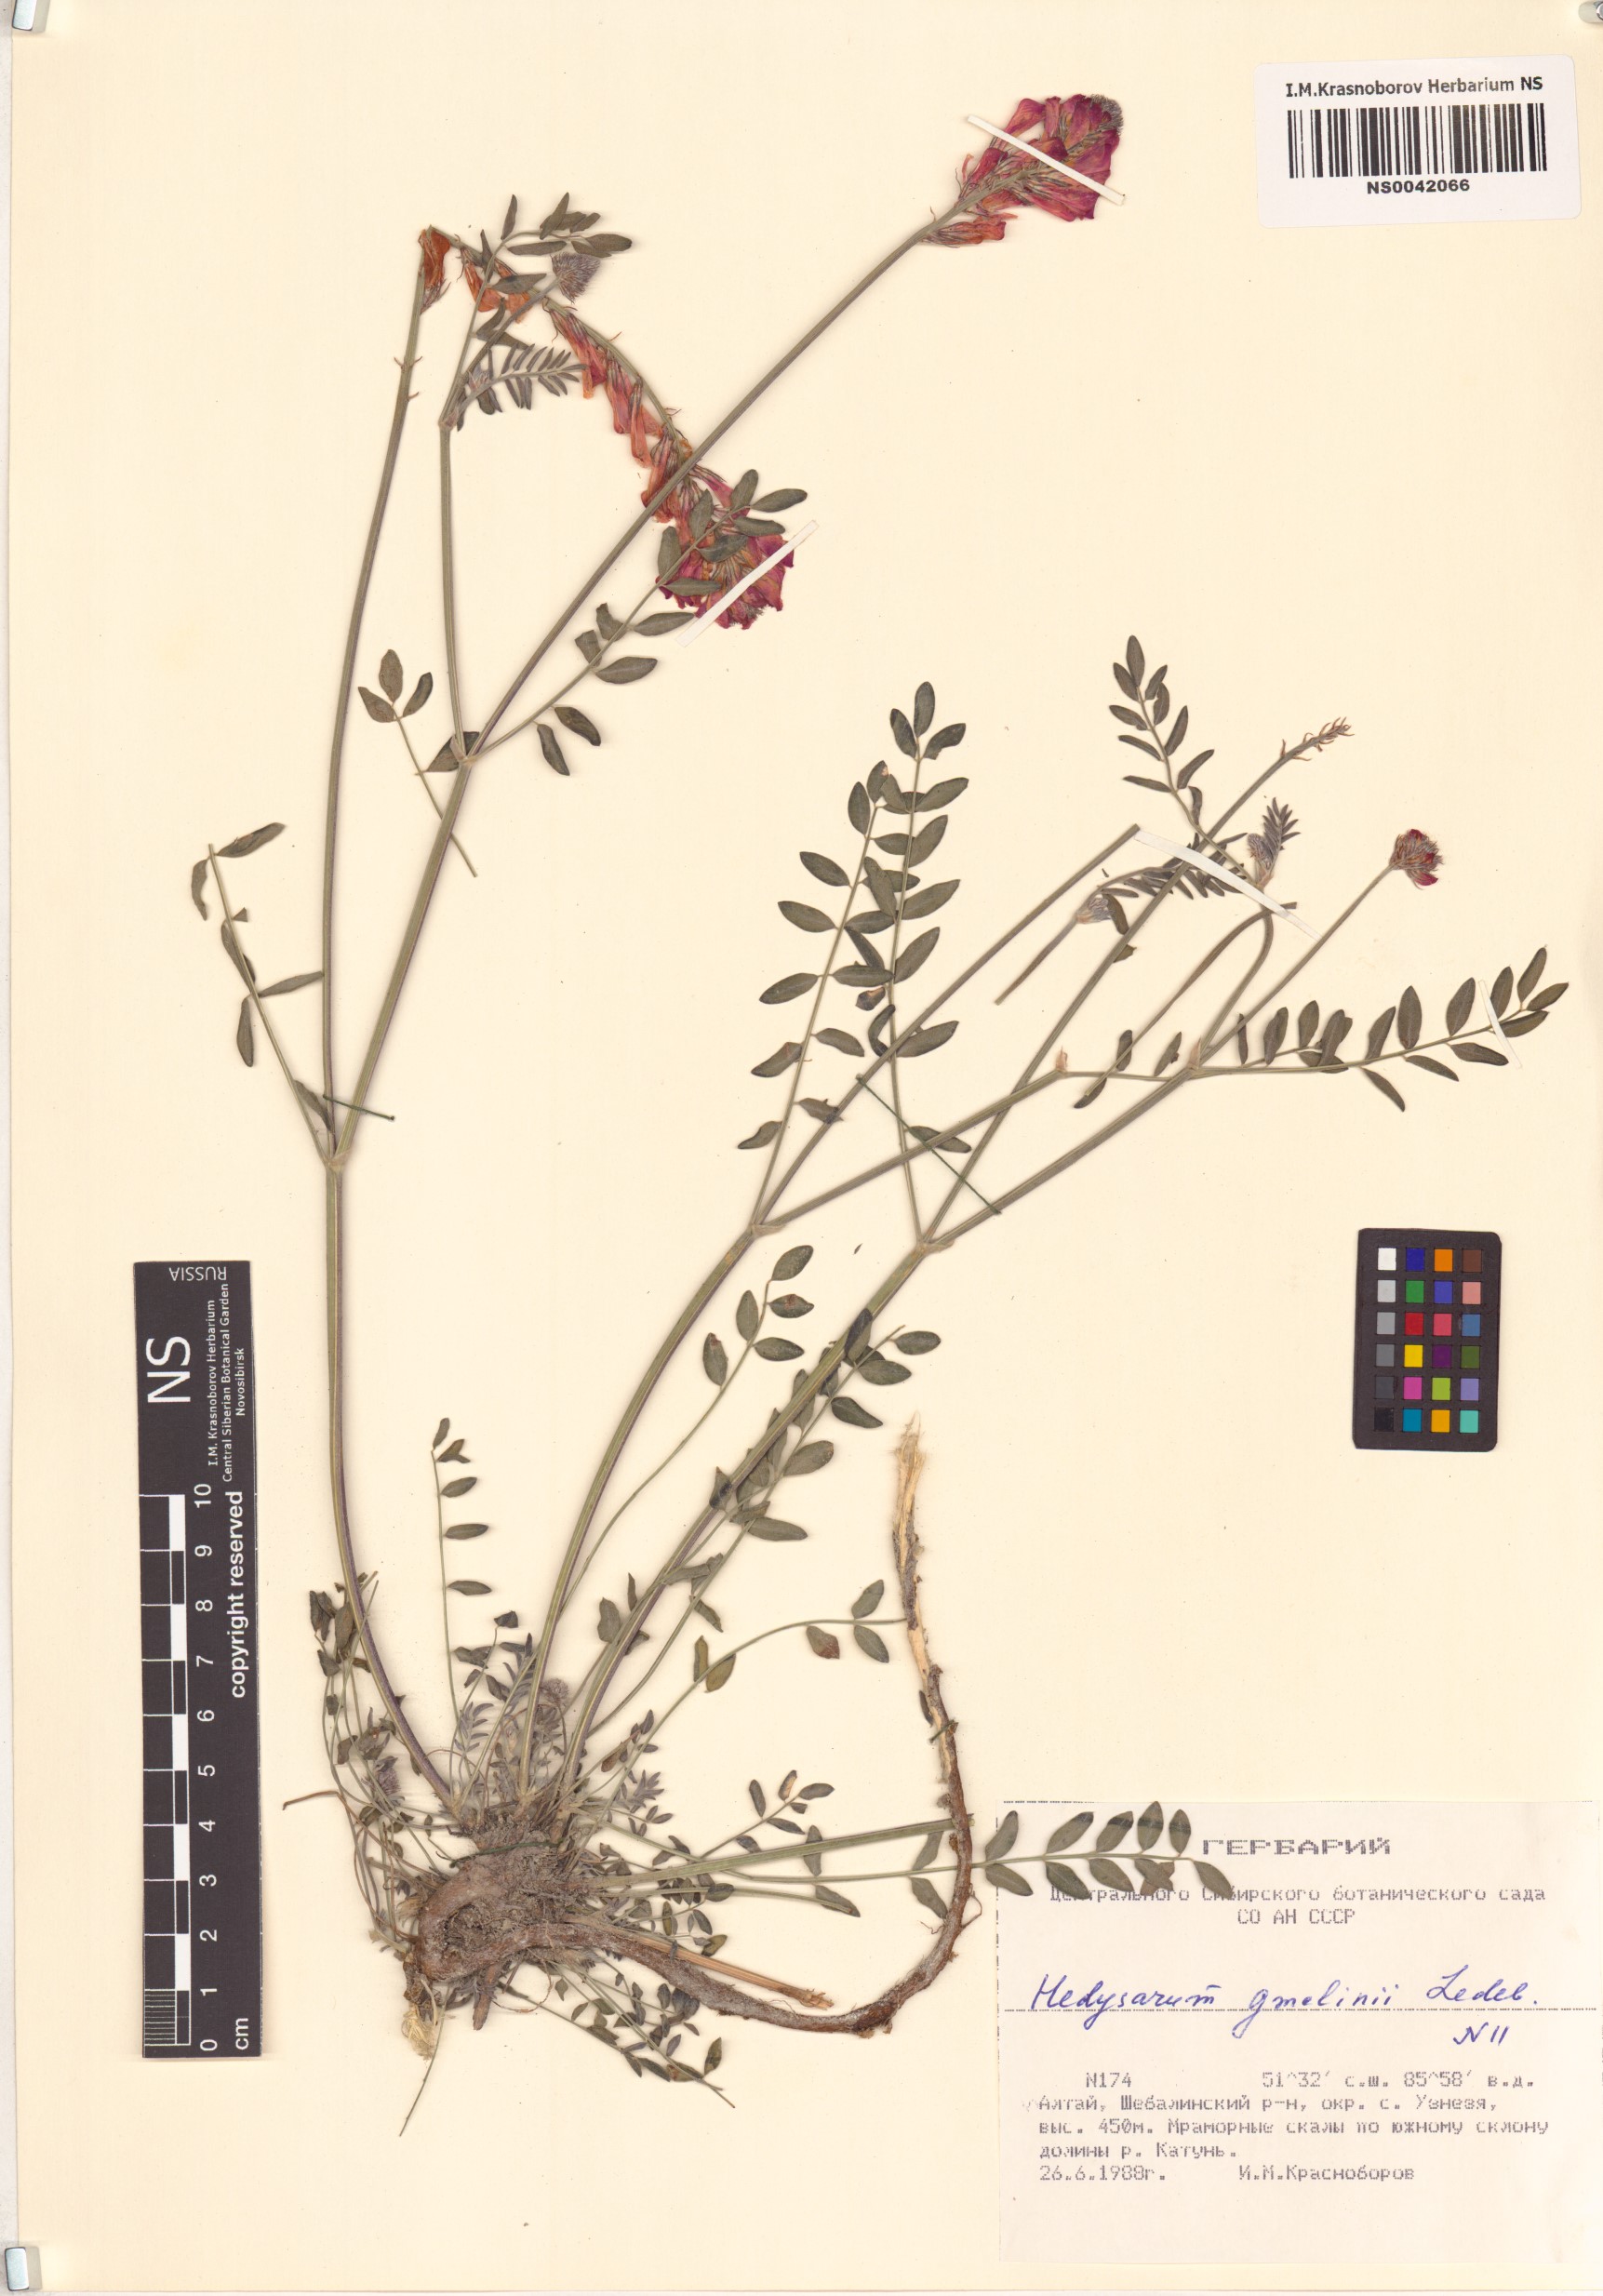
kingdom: Plantae
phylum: Tracheophyta
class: Magnoliopsida
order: Fabales
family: Fabaceae
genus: Hedysarum
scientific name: Hedysarum gmelinii
